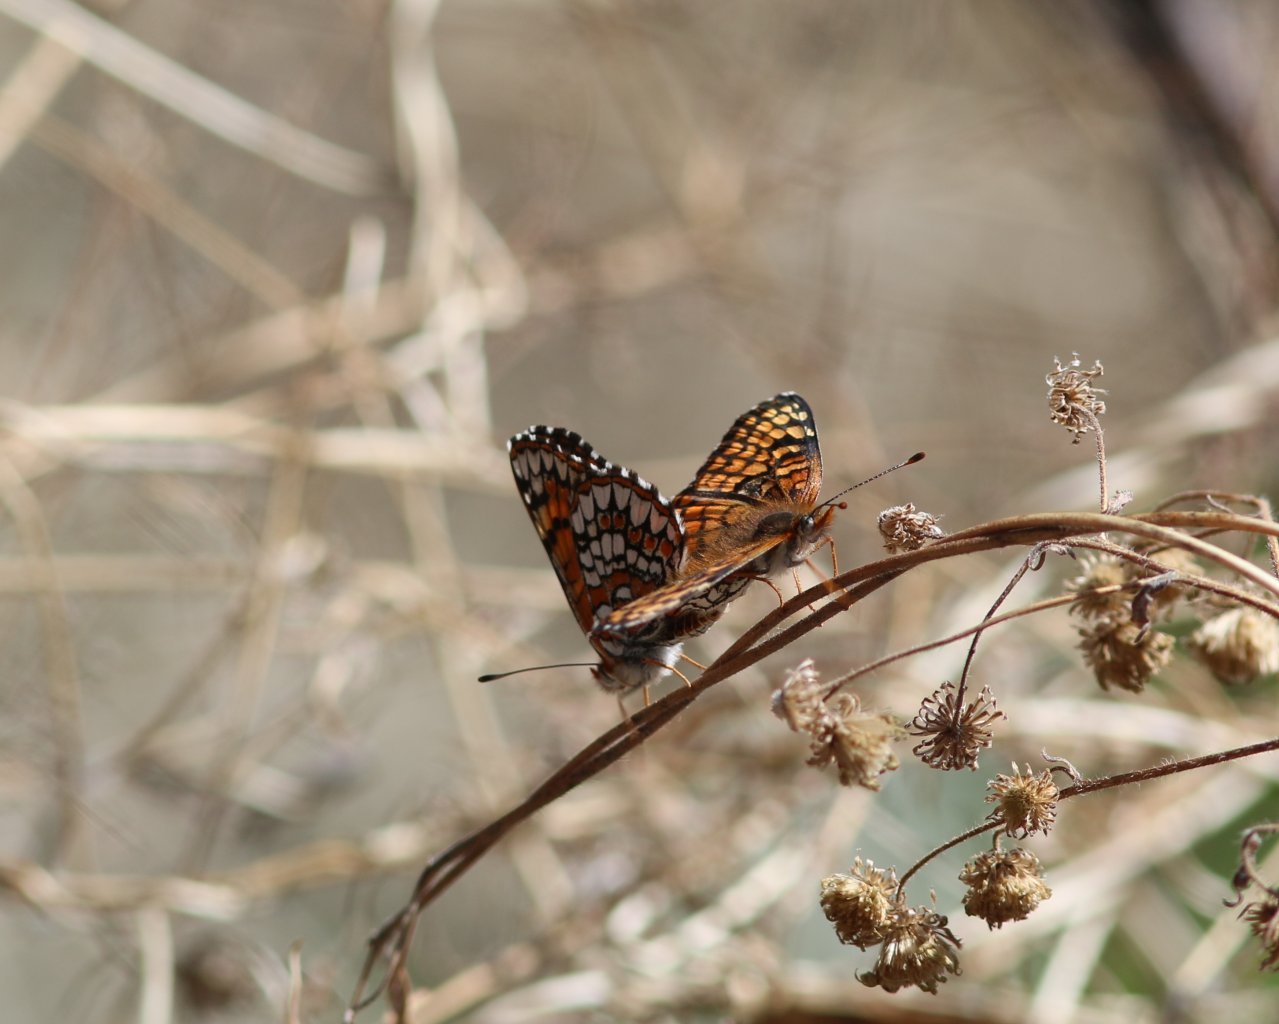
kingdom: Animalia
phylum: Arthropoda
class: Insecta
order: Lepidoptera
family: Nymphalidae
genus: Chlosyne
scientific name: Chlosyne acastus
